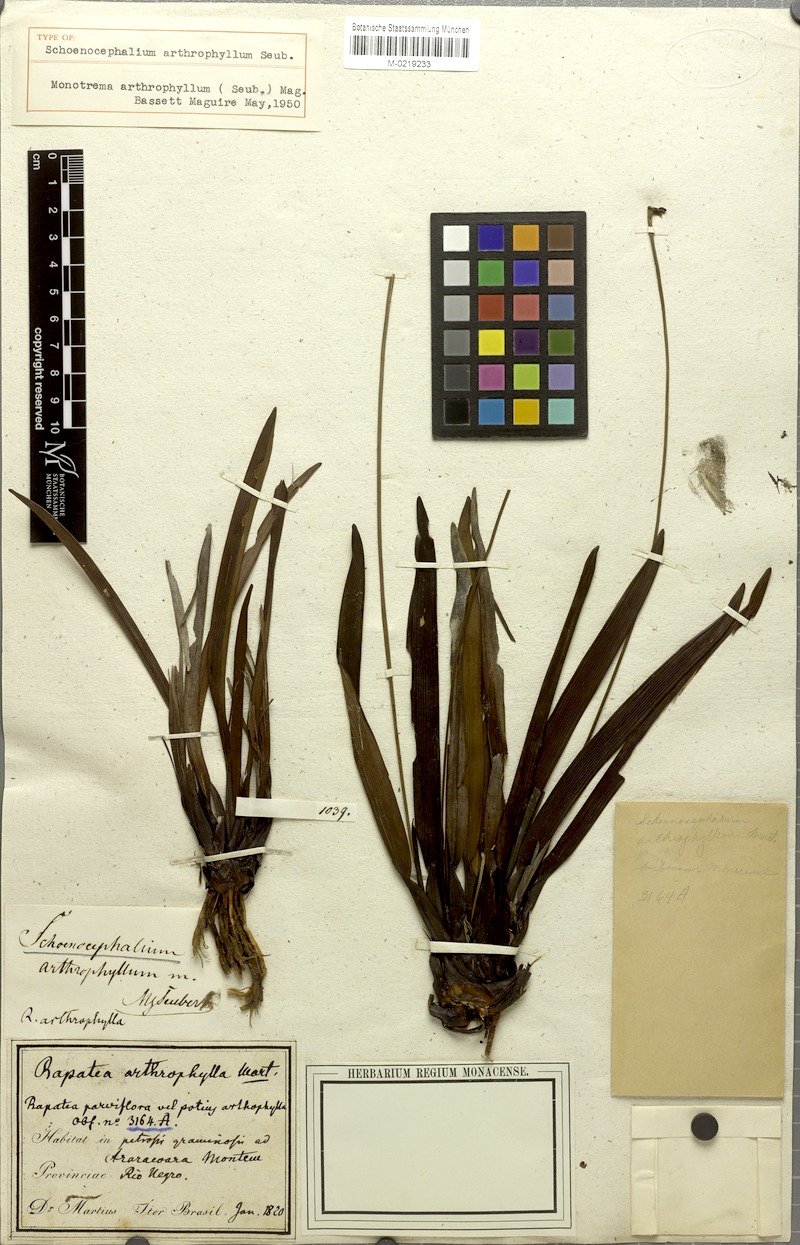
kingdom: Plantae
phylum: Tracheophyta
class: Liliopsida
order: Poales
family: Rapateaceae
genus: Monotrema
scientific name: Monotrema arthrophyllum
